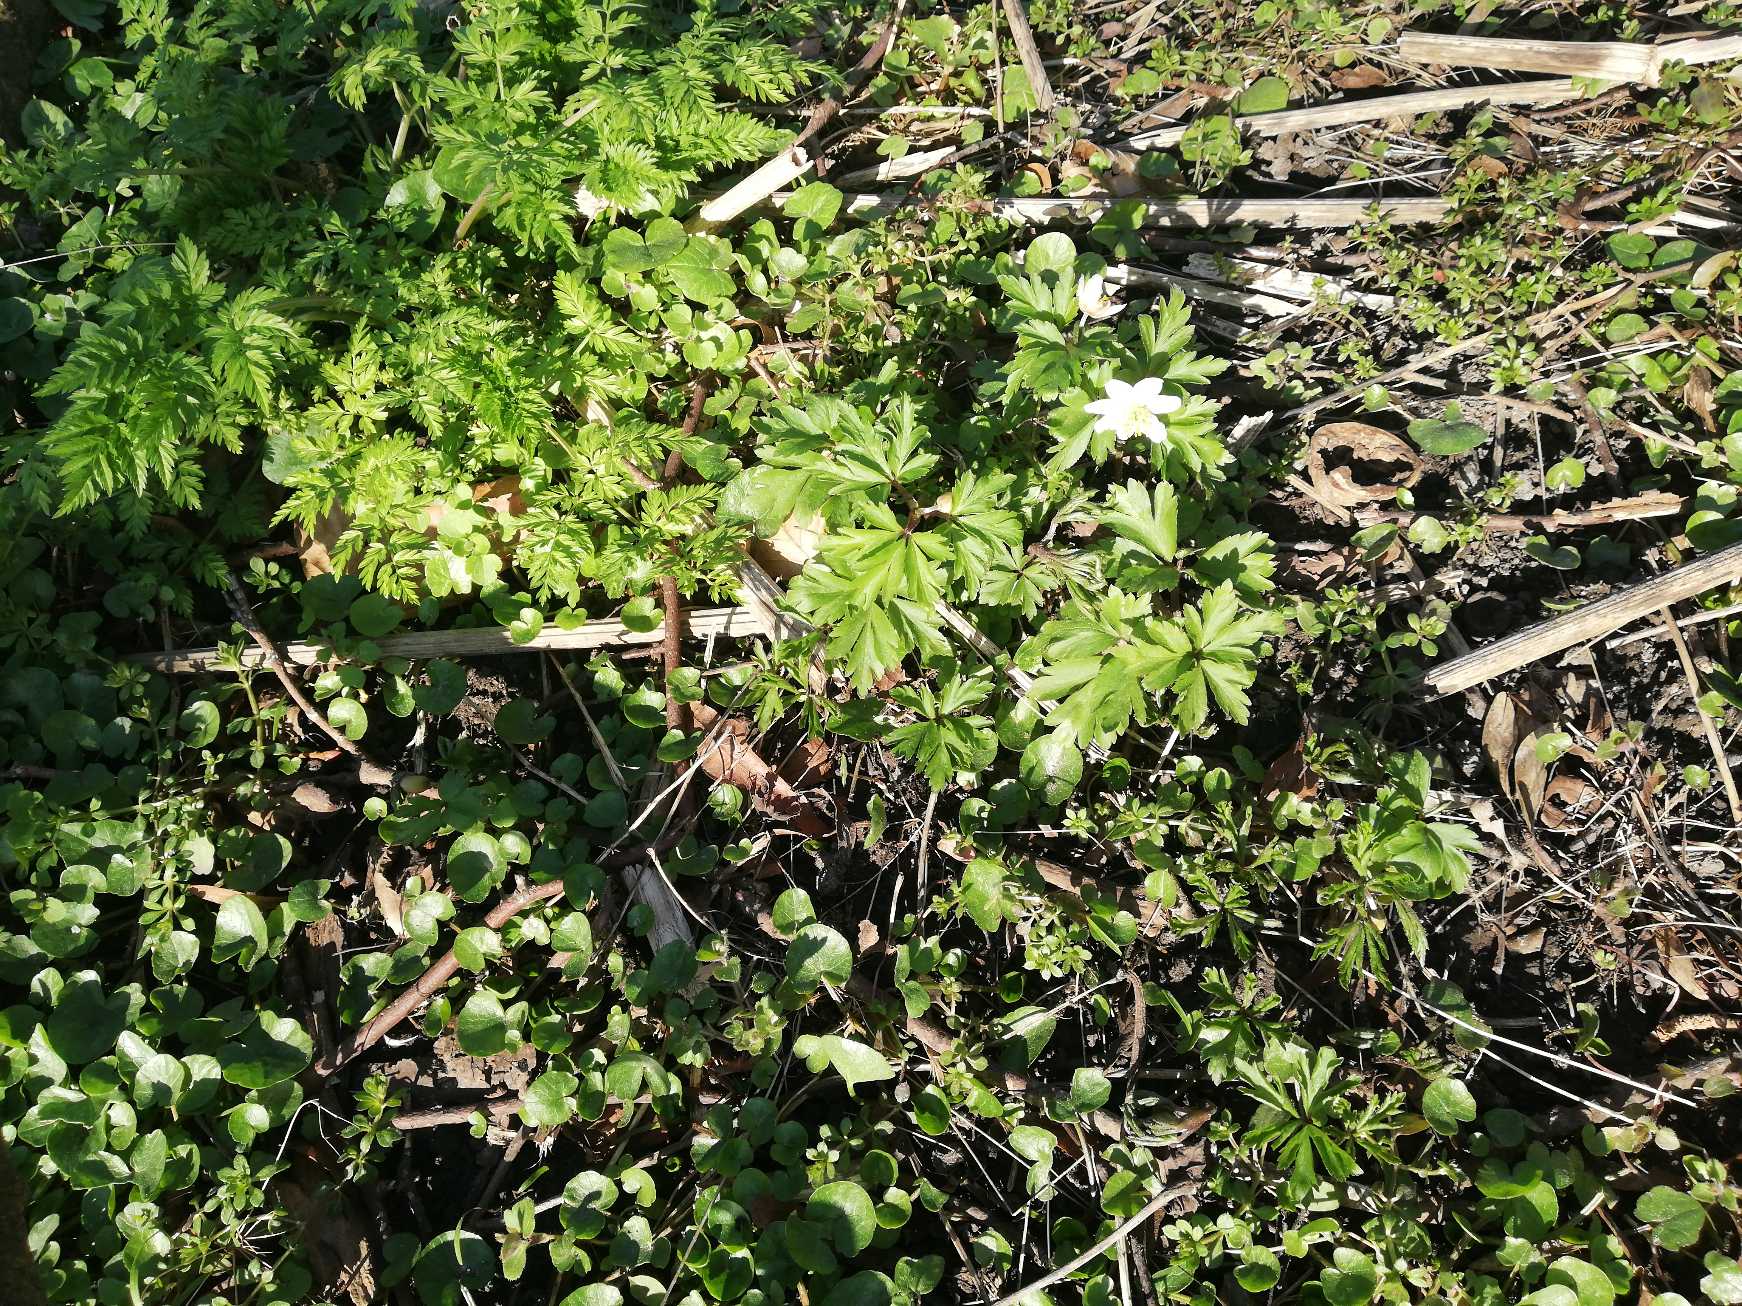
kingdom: Plantae
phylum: Tracheophyta
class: Magnoliopsida
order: Ranunculales
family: Ranunculaceae
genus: Anemone
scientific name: Anemone nemorosa
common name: Hvid anemone
